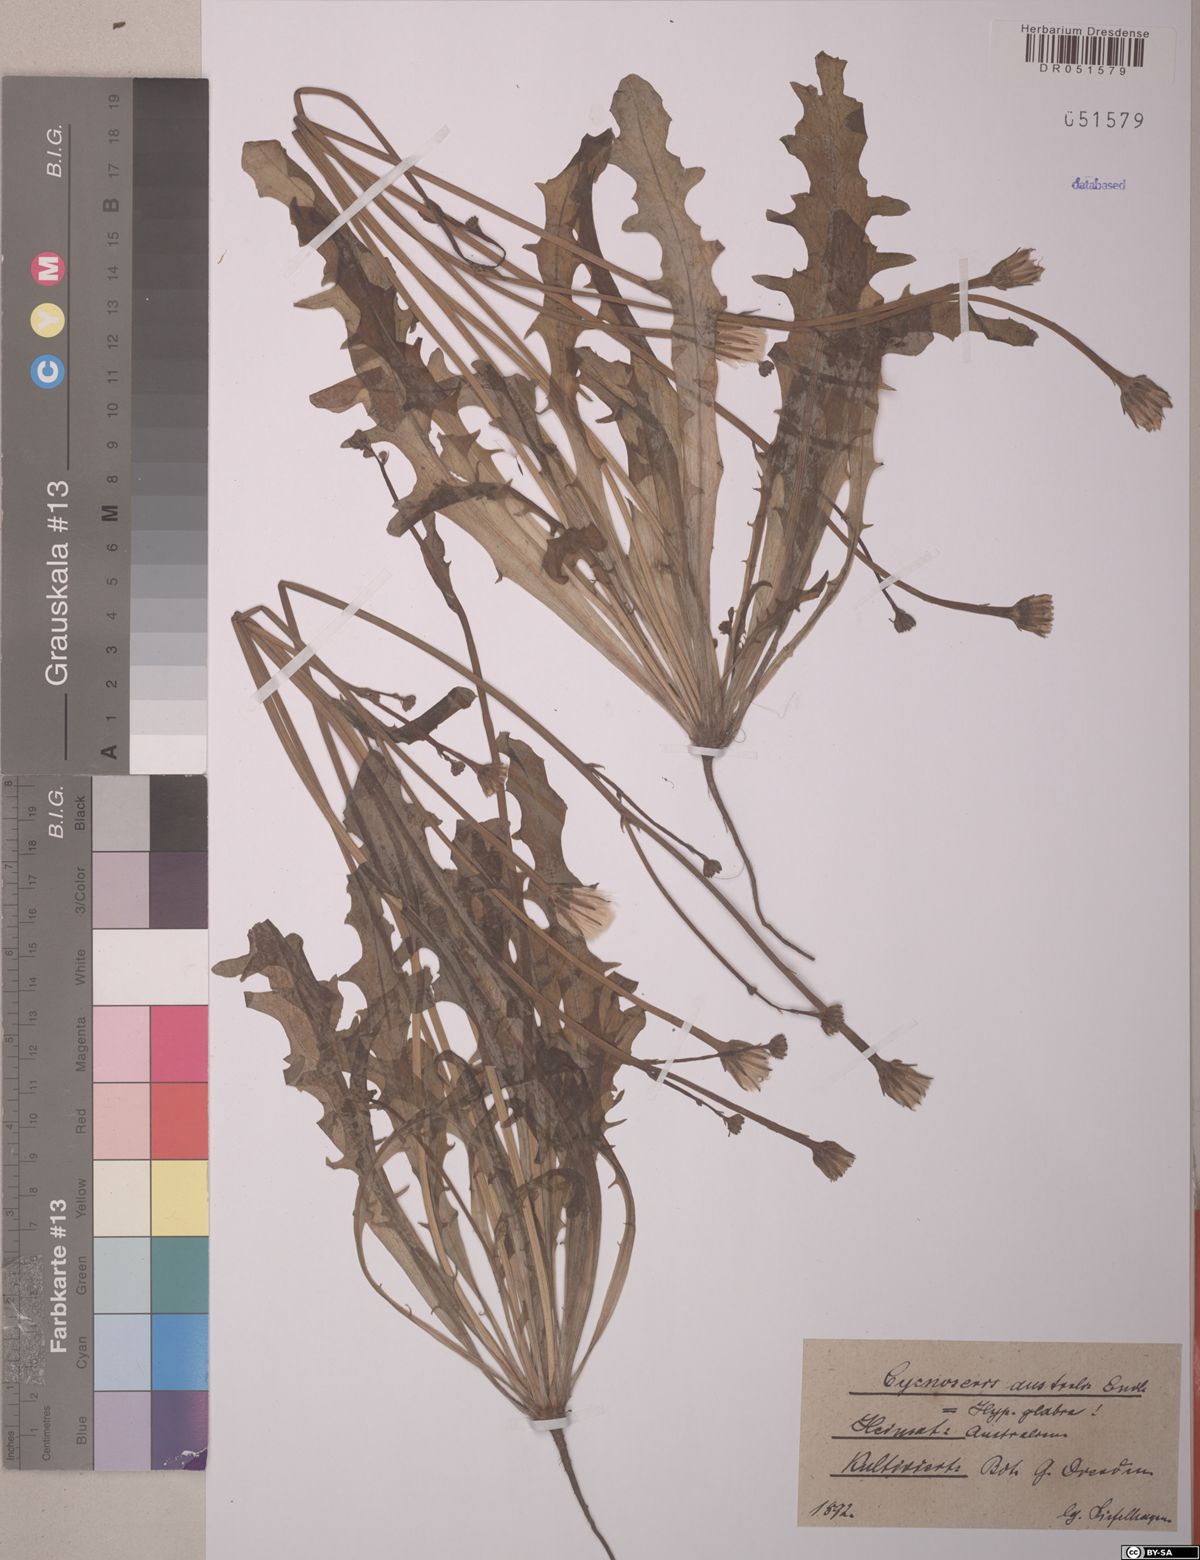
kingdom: Plantae
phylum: Tracheophyta
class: Magnoliopsida
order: Asterales
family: Asteraceae
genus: Hypochaeris
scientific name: Hypochaeris glabra
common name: Smooth catsear
